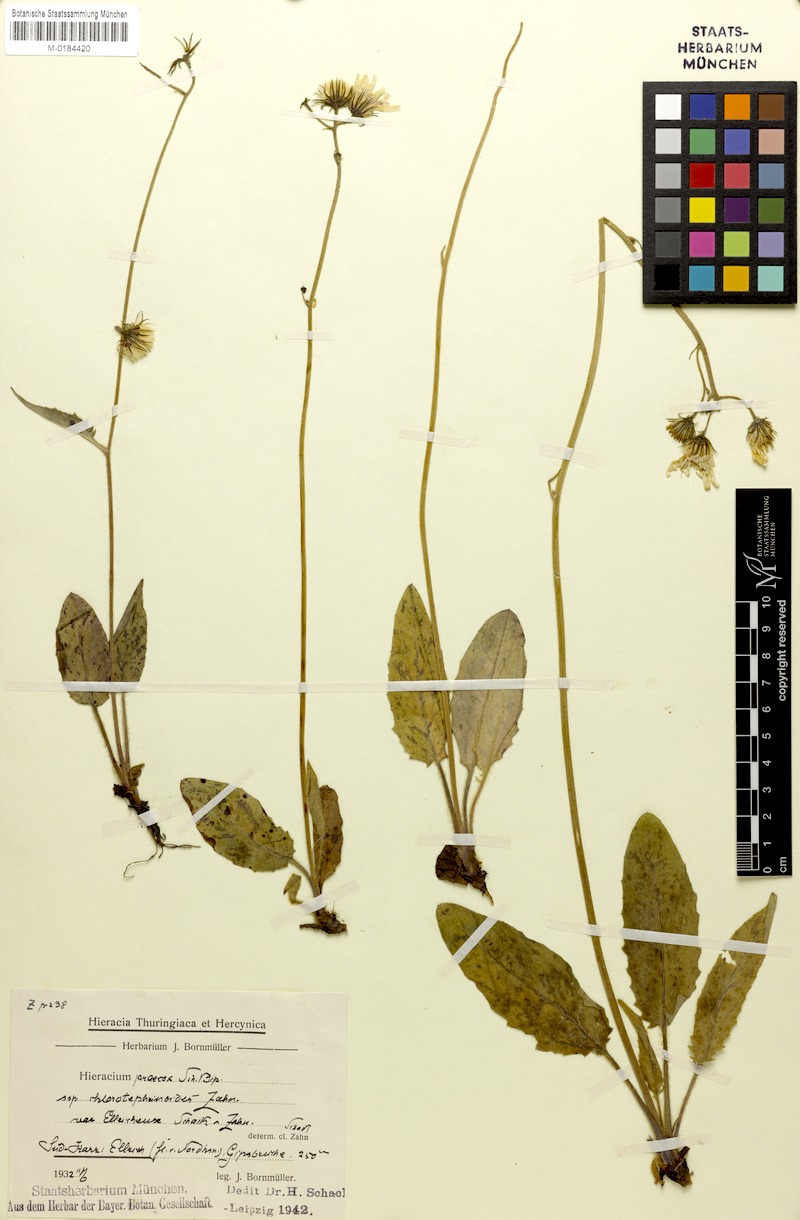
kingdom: Plantae
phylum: Tracheophyta
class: Magnoliopsida
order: Asterales
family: Asteraceae
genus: Hieracium
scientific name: Hieracium glaucinum
